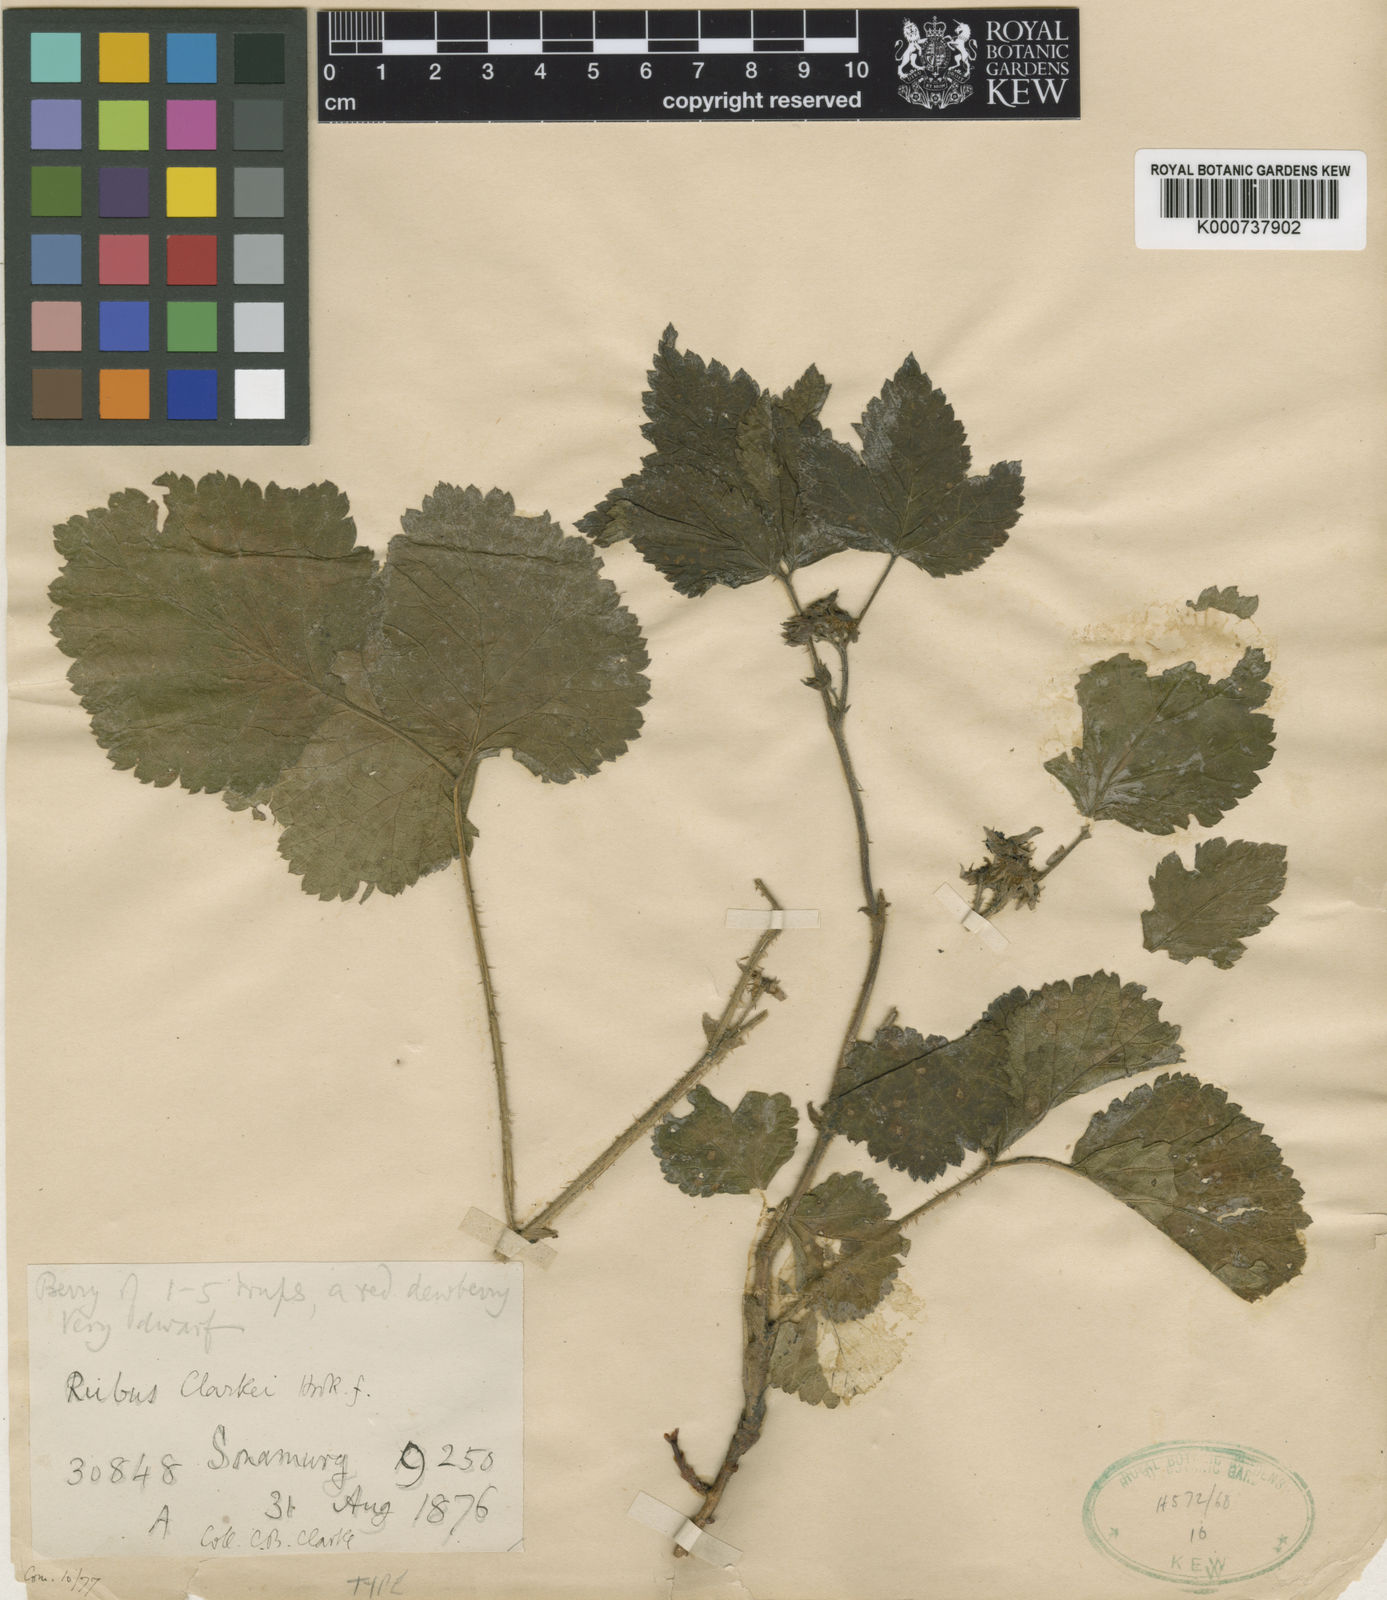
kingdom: Plantae
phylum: Tracheophyta
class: Magnoliopsida
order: Rosales
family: Rosaceae
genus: Rubus
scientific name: Rubus saxatilis
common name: Stone bramble
